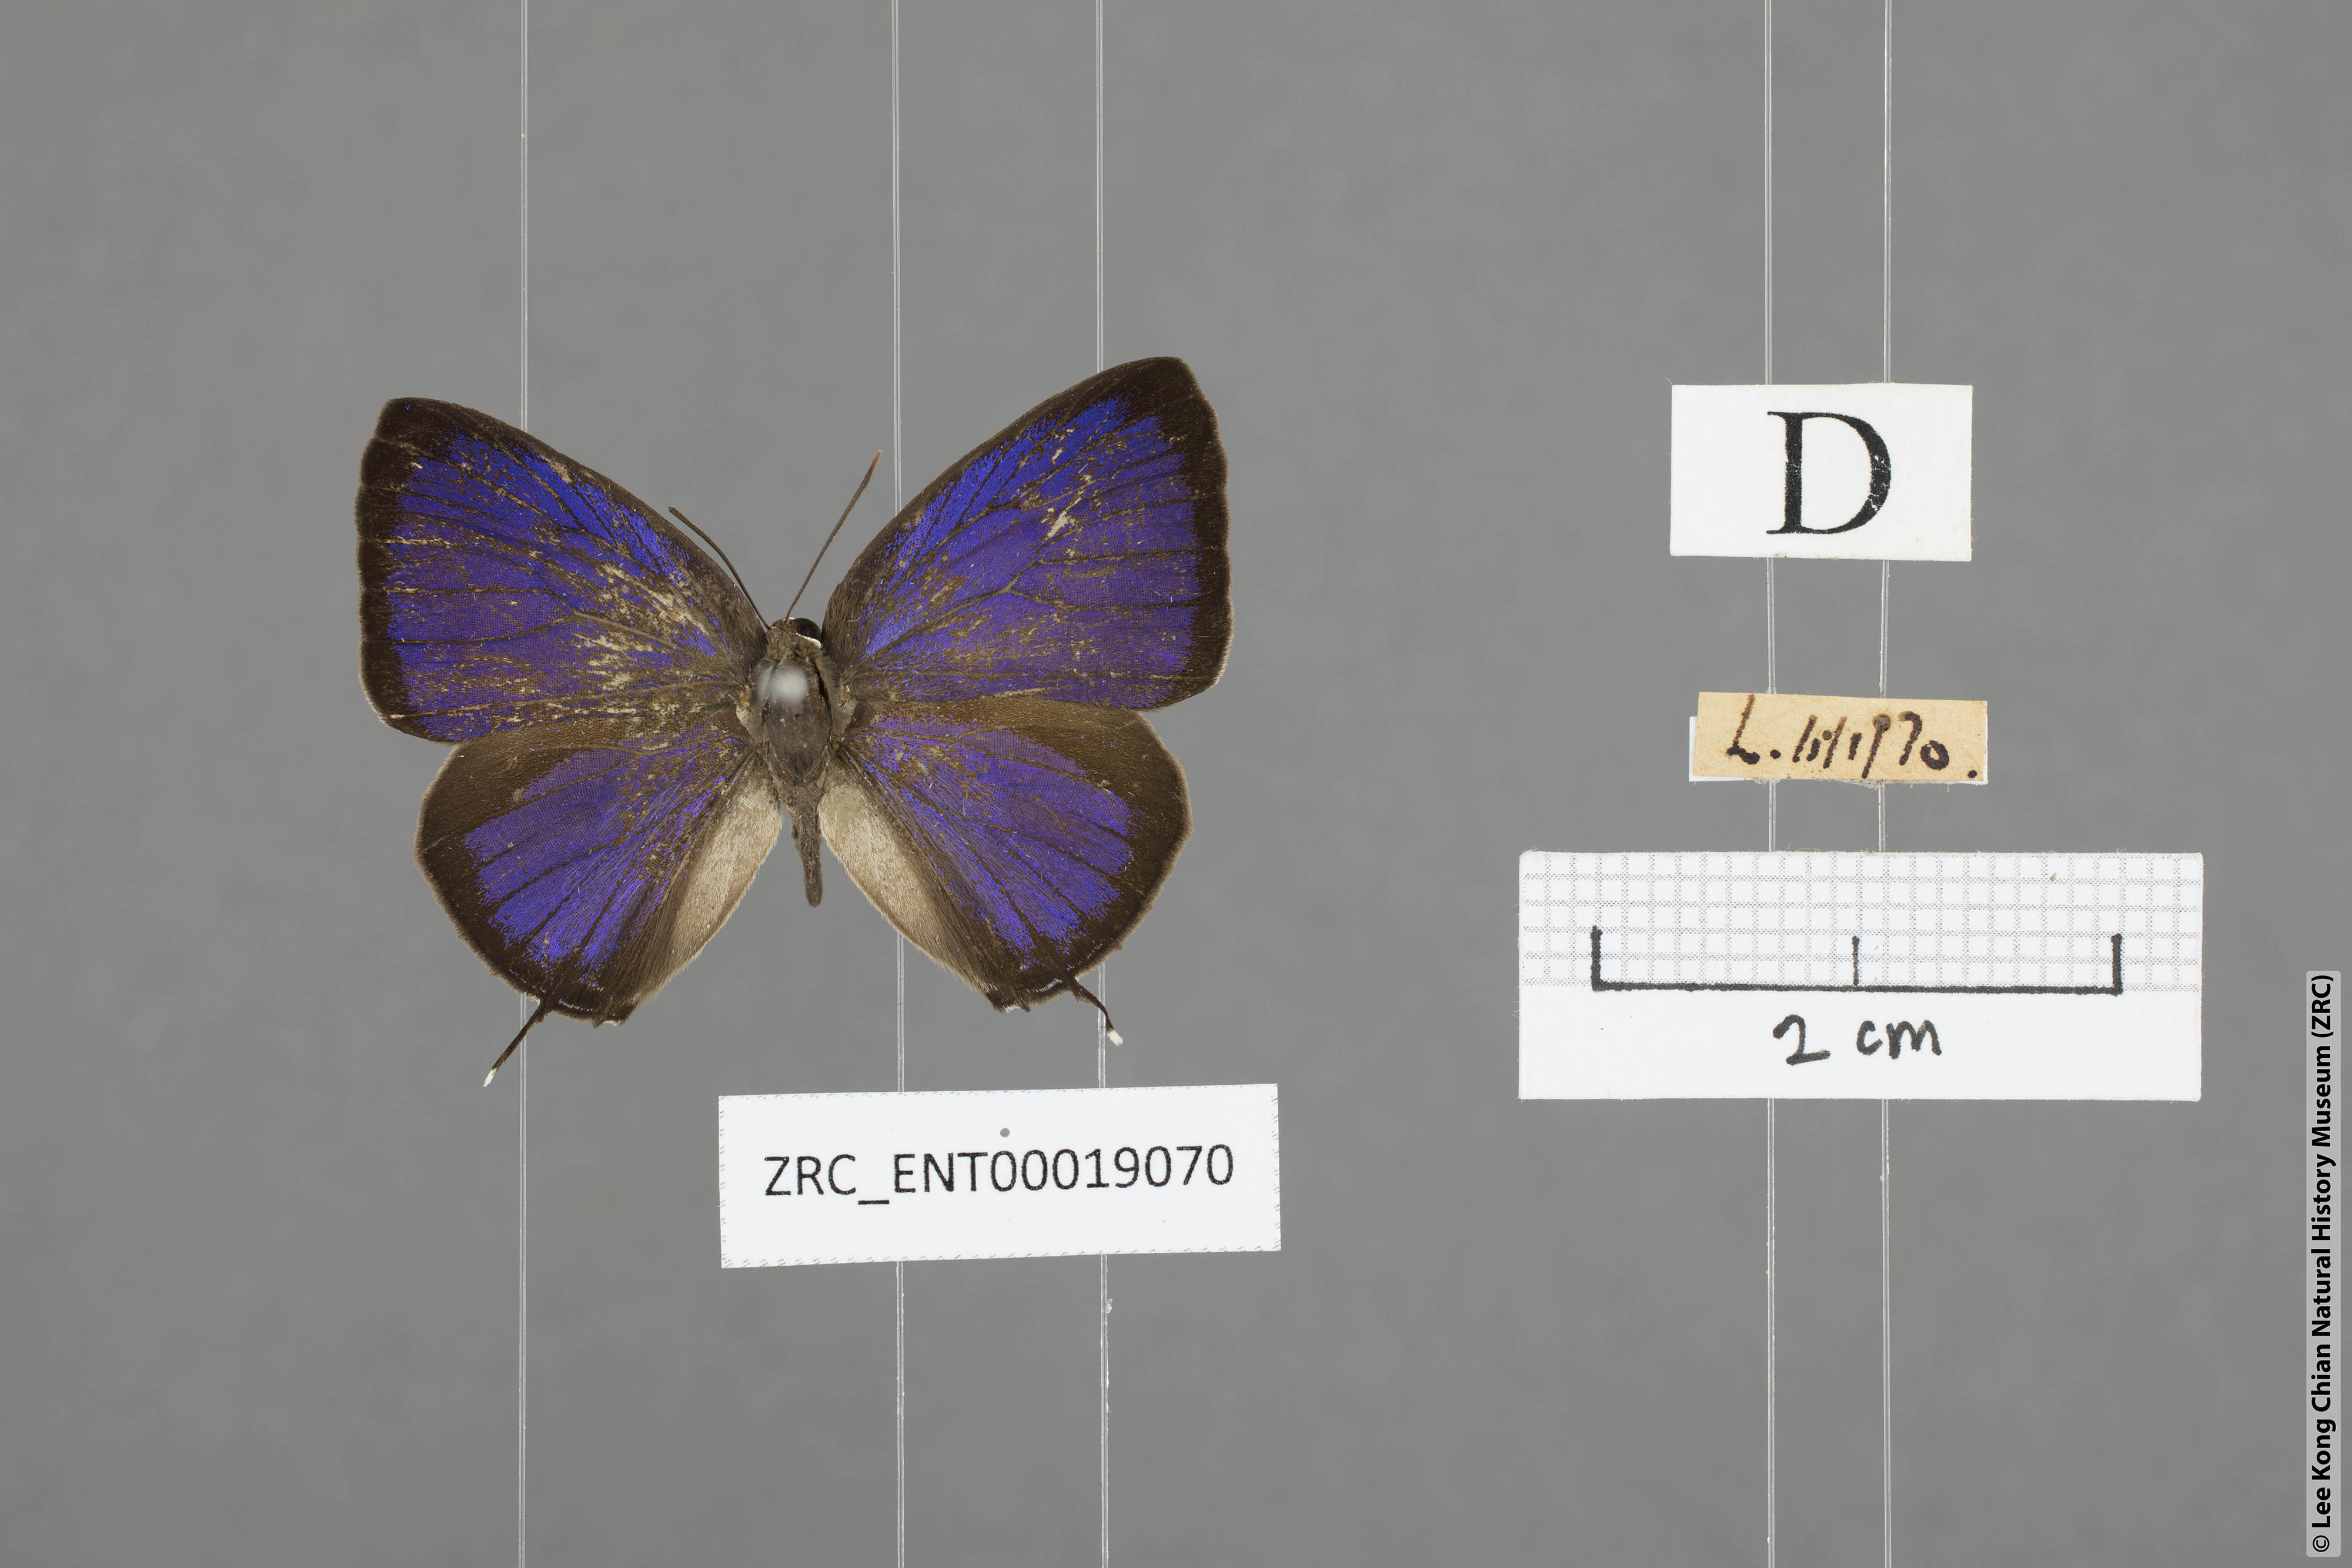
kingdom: Animalia
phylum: Arthropoda
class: Insecta
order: Lepidoptera
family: Lycaenidae
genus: Arhopala
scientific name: Arhopala aida
